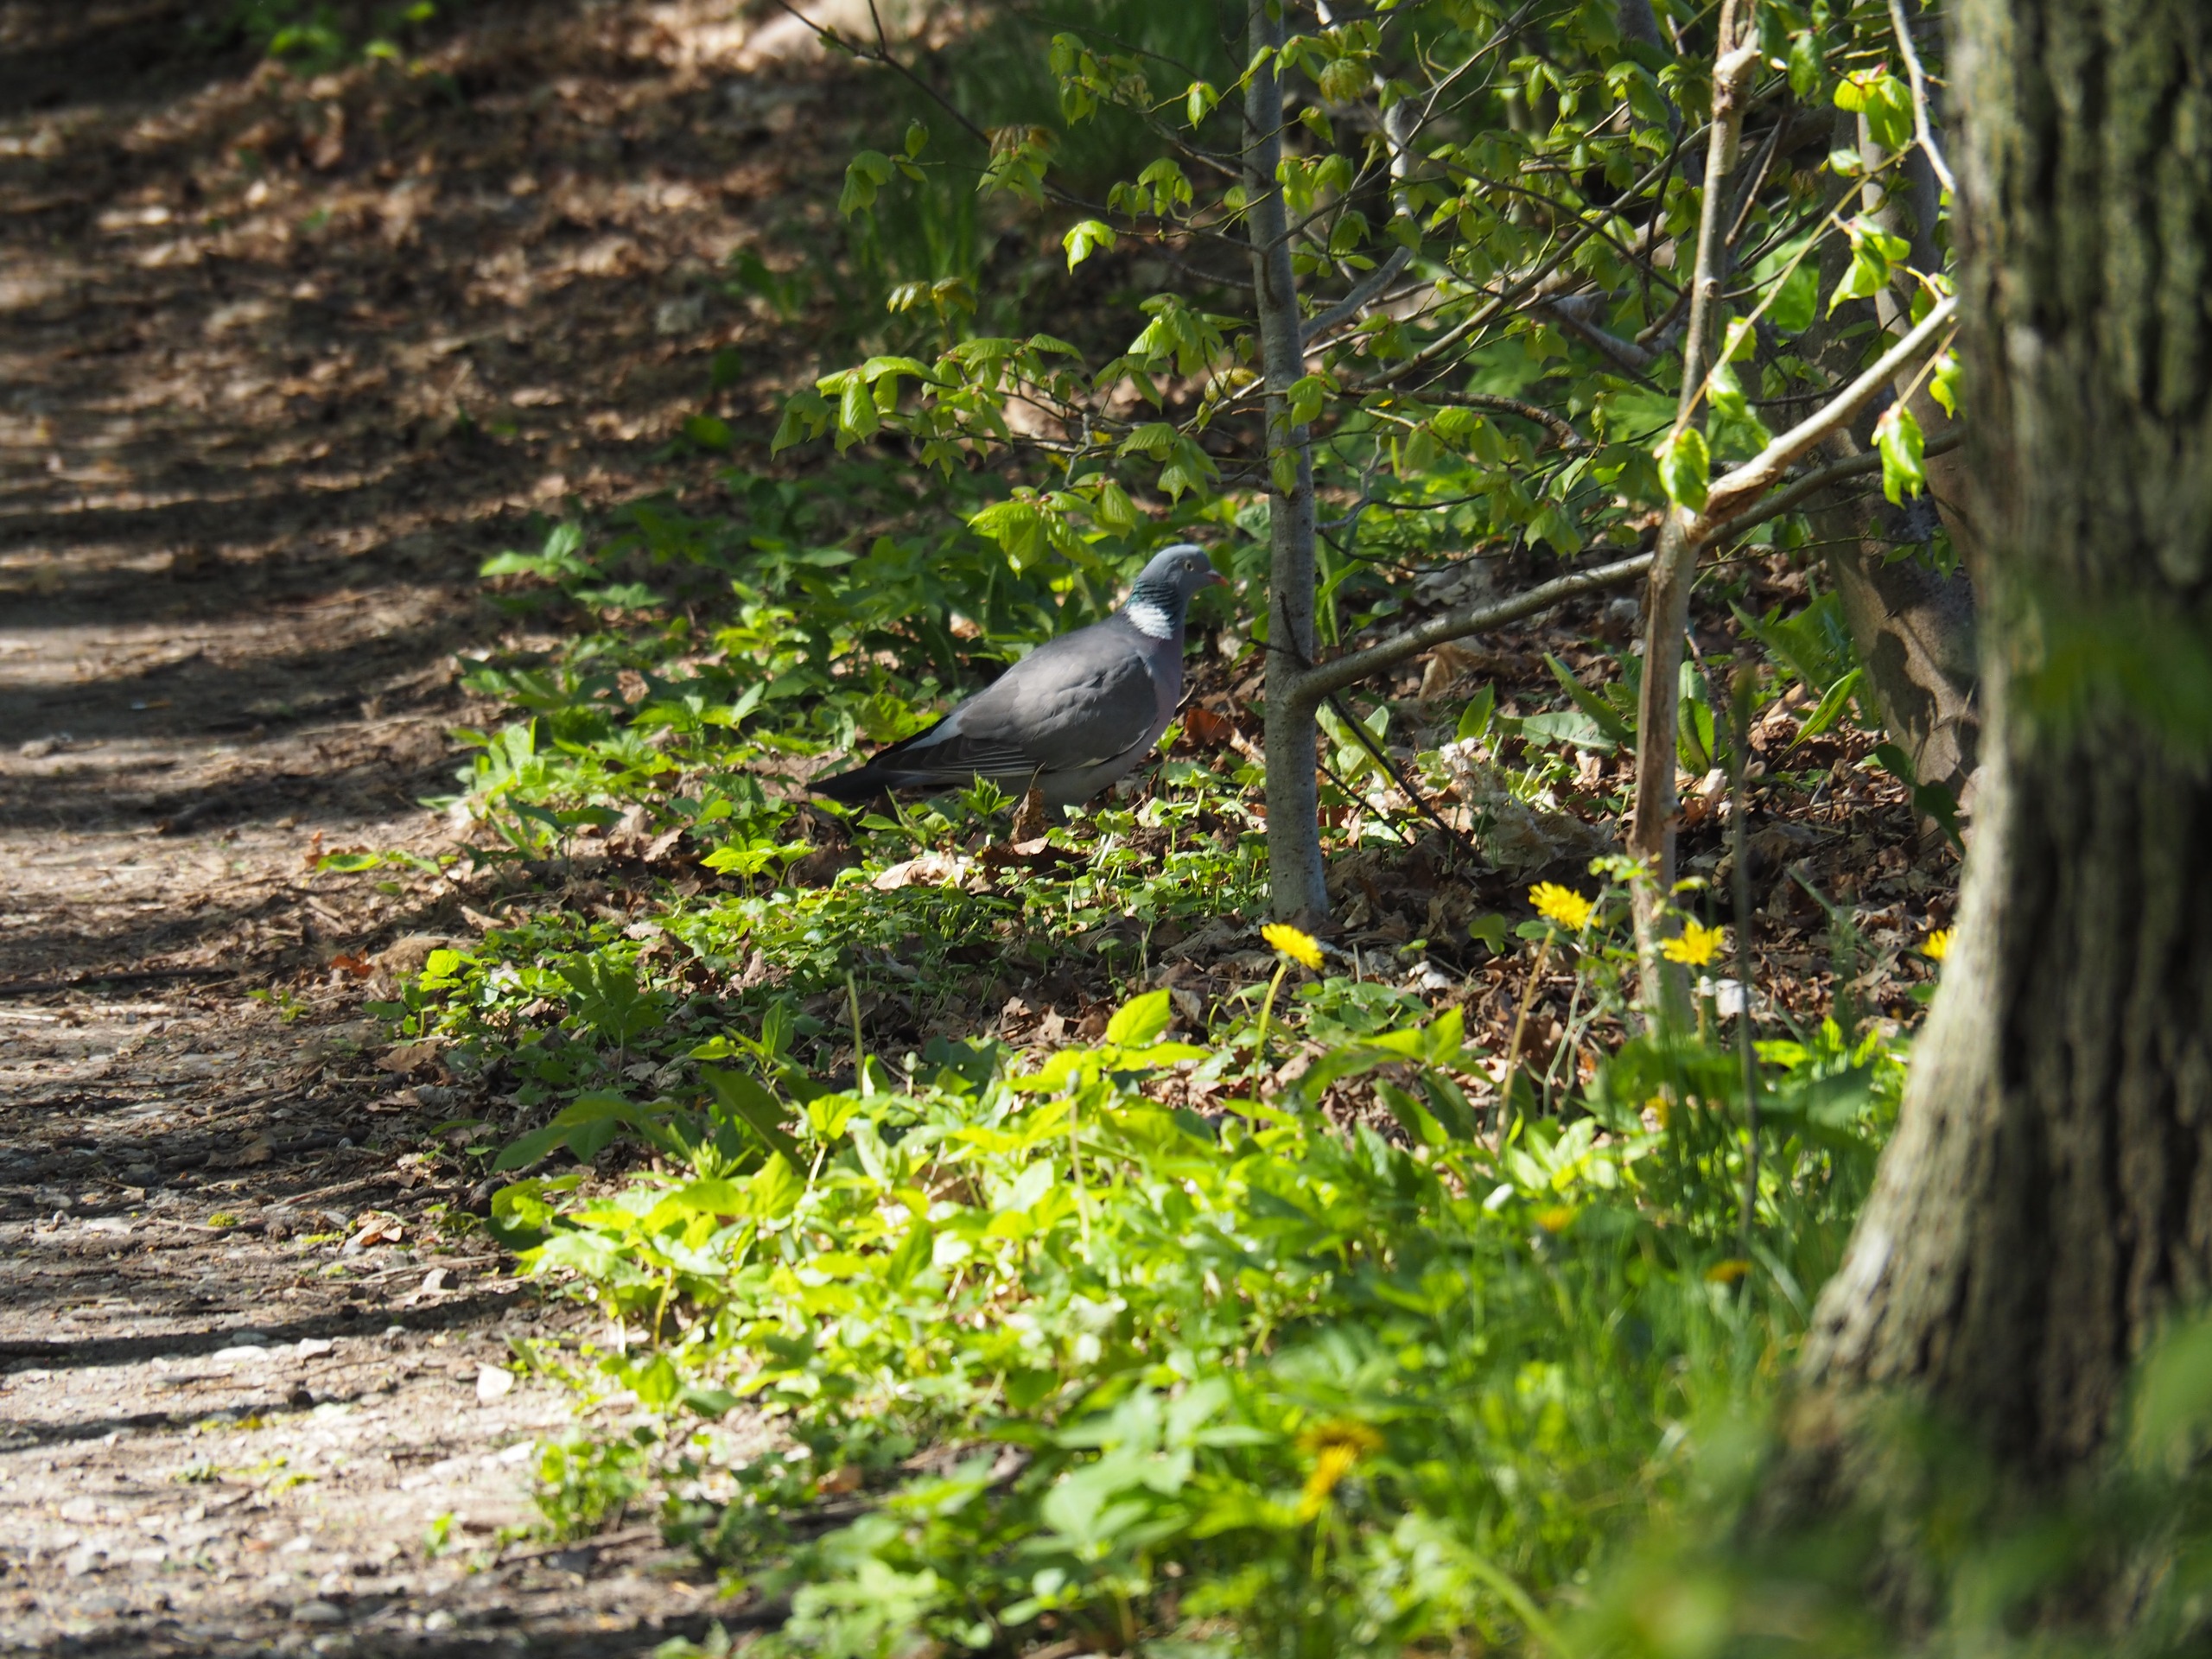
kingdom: Animalia
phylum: Chordata
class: Aves
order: Columbiformes
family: Columbidae
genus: Columba
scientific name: Columba palumbus
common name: Ringdue
